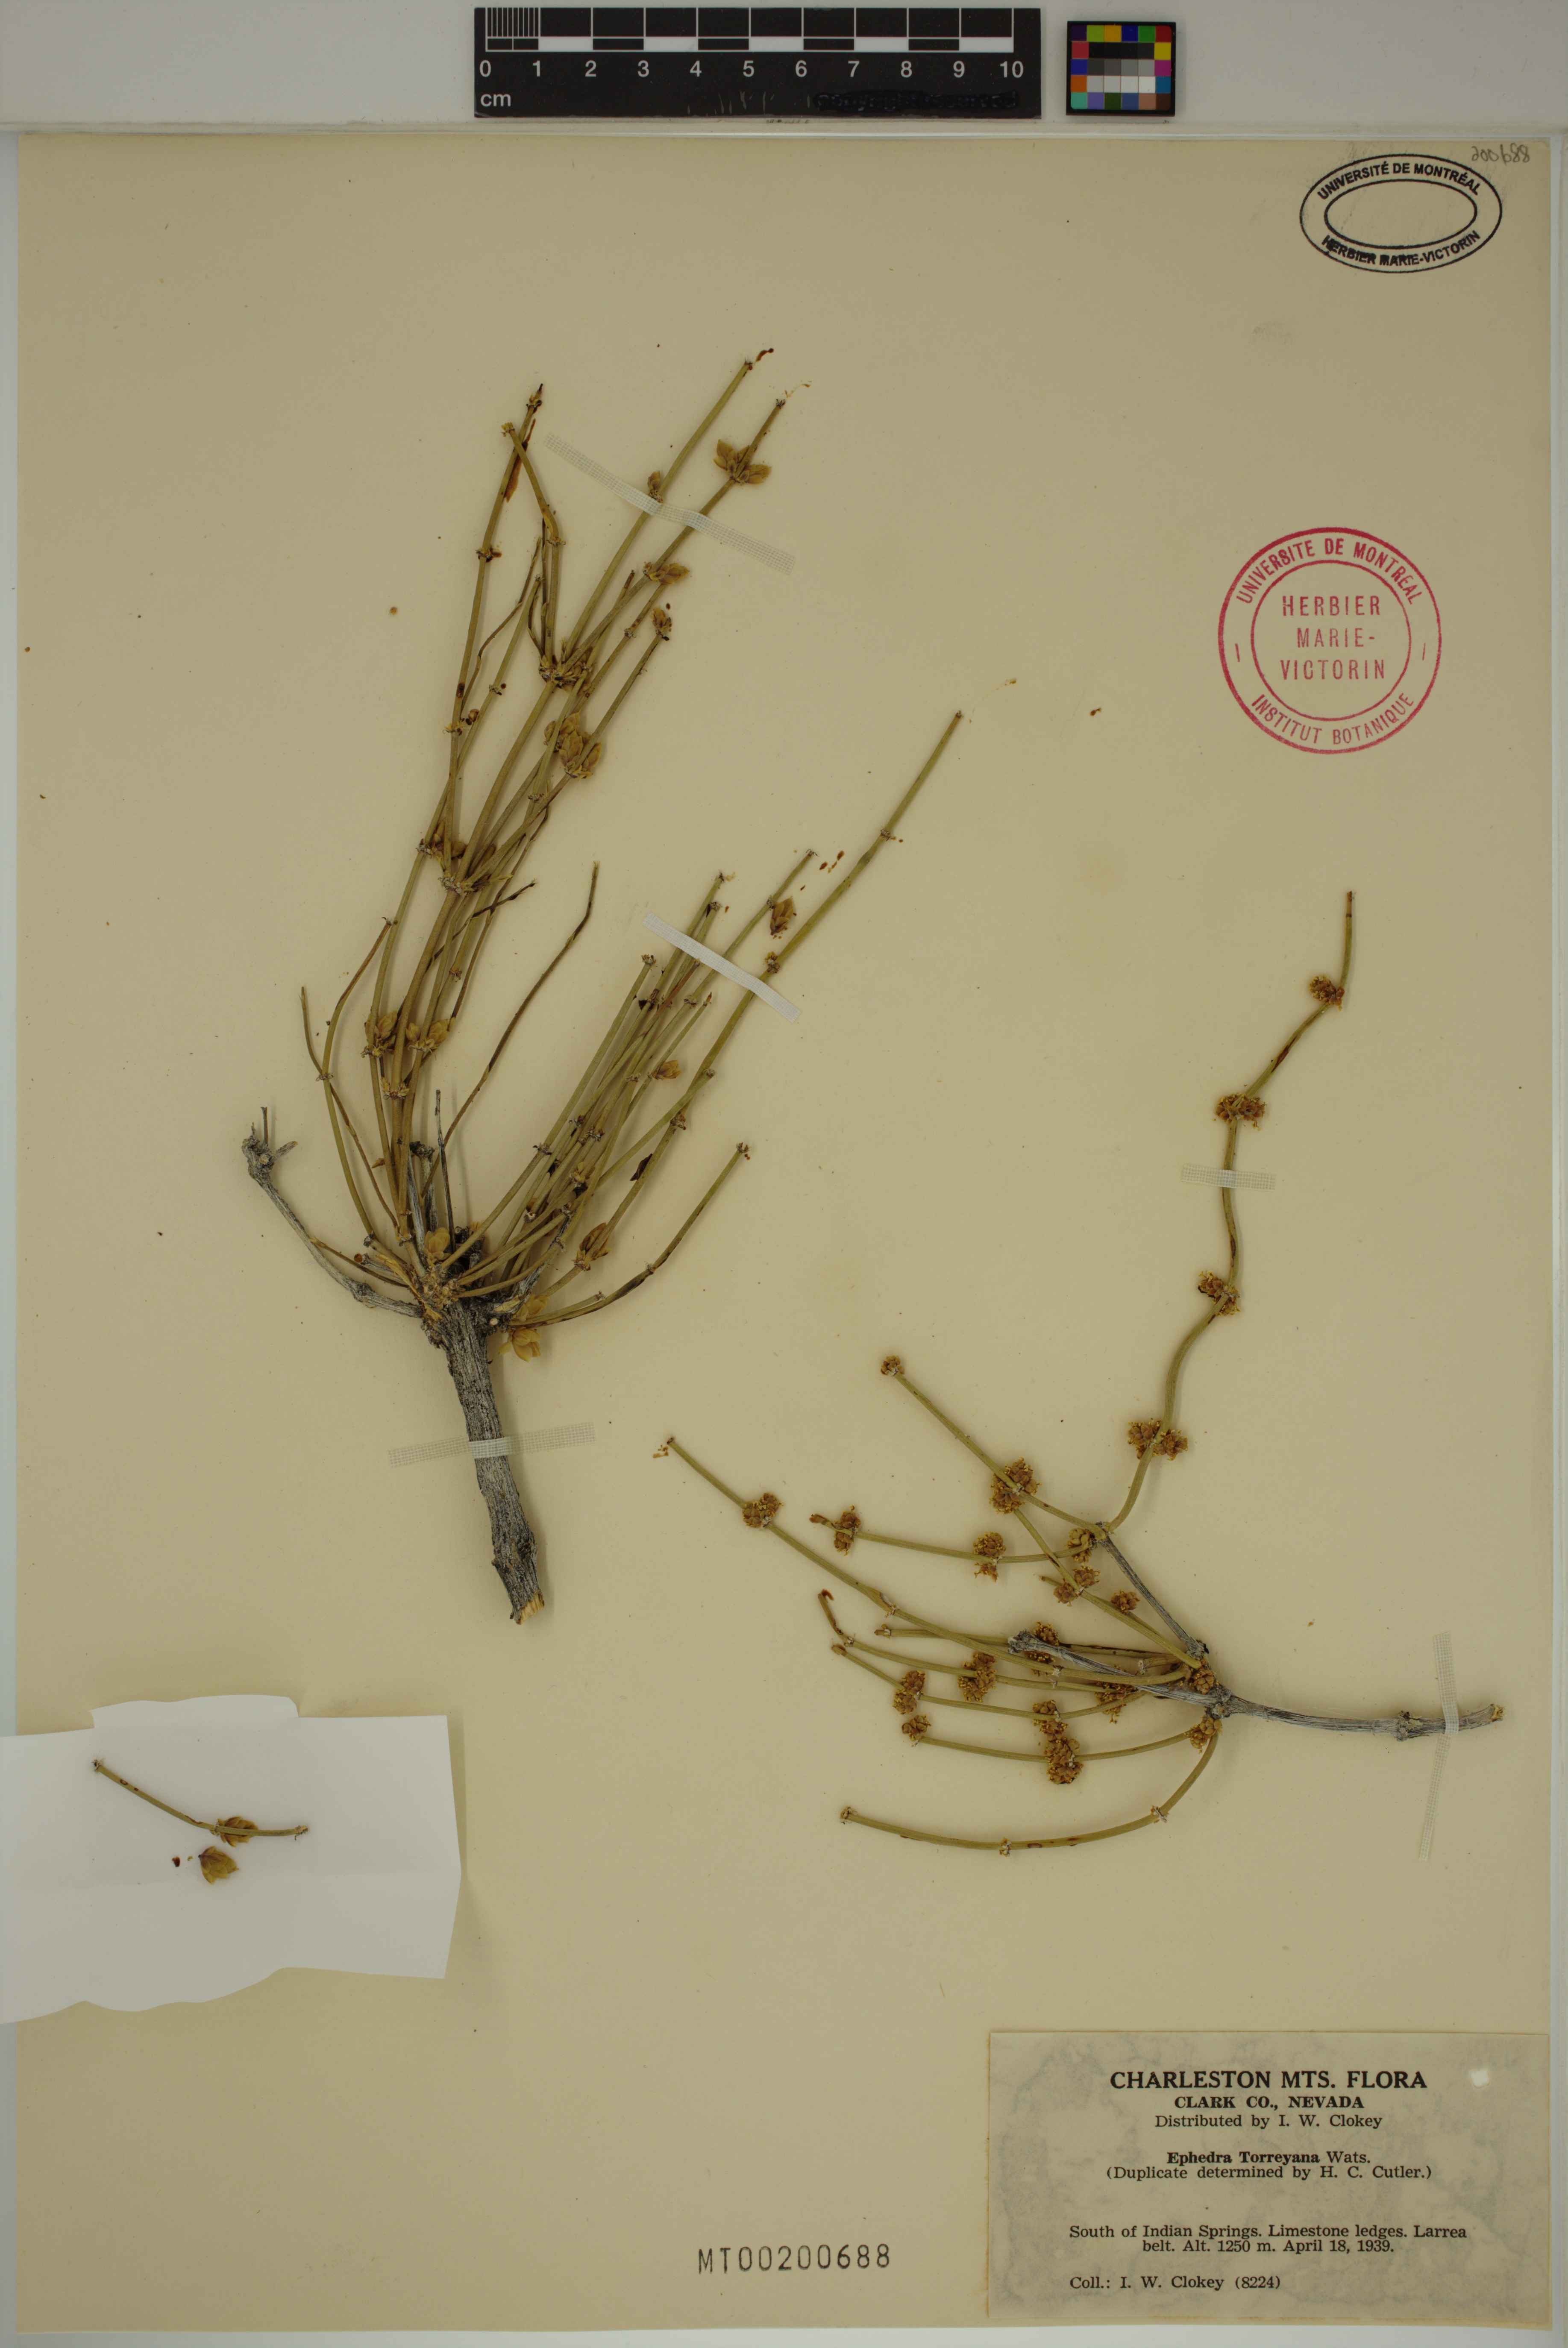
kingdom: Plantae
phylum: Tracheophyta
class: Gnetopsida
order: Ephedrales
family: Ephedraceae
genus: Ephedra
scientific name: Ephedra torreyana
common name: Torrey ephedra
